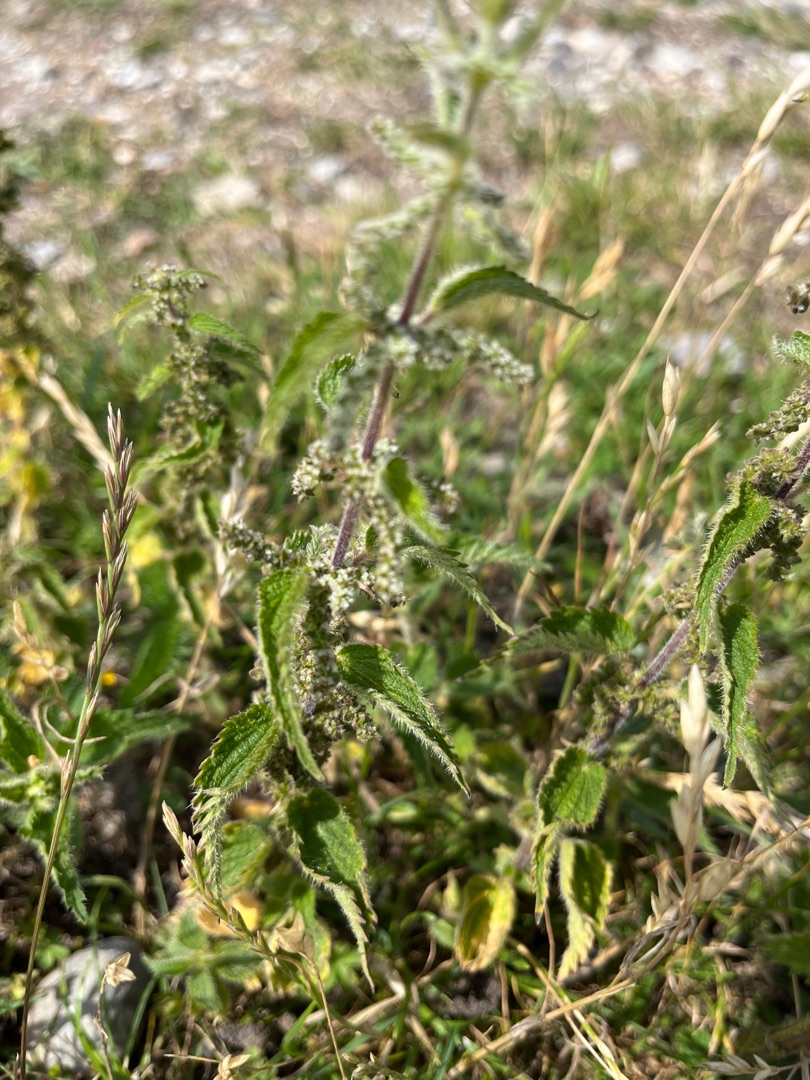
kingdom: Plantae
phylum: Tracheophyta
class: Magnoliopsida
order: Rosales
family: Urticaceae
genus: Urtica
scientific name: Urtica dioica
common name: Stor nælde
